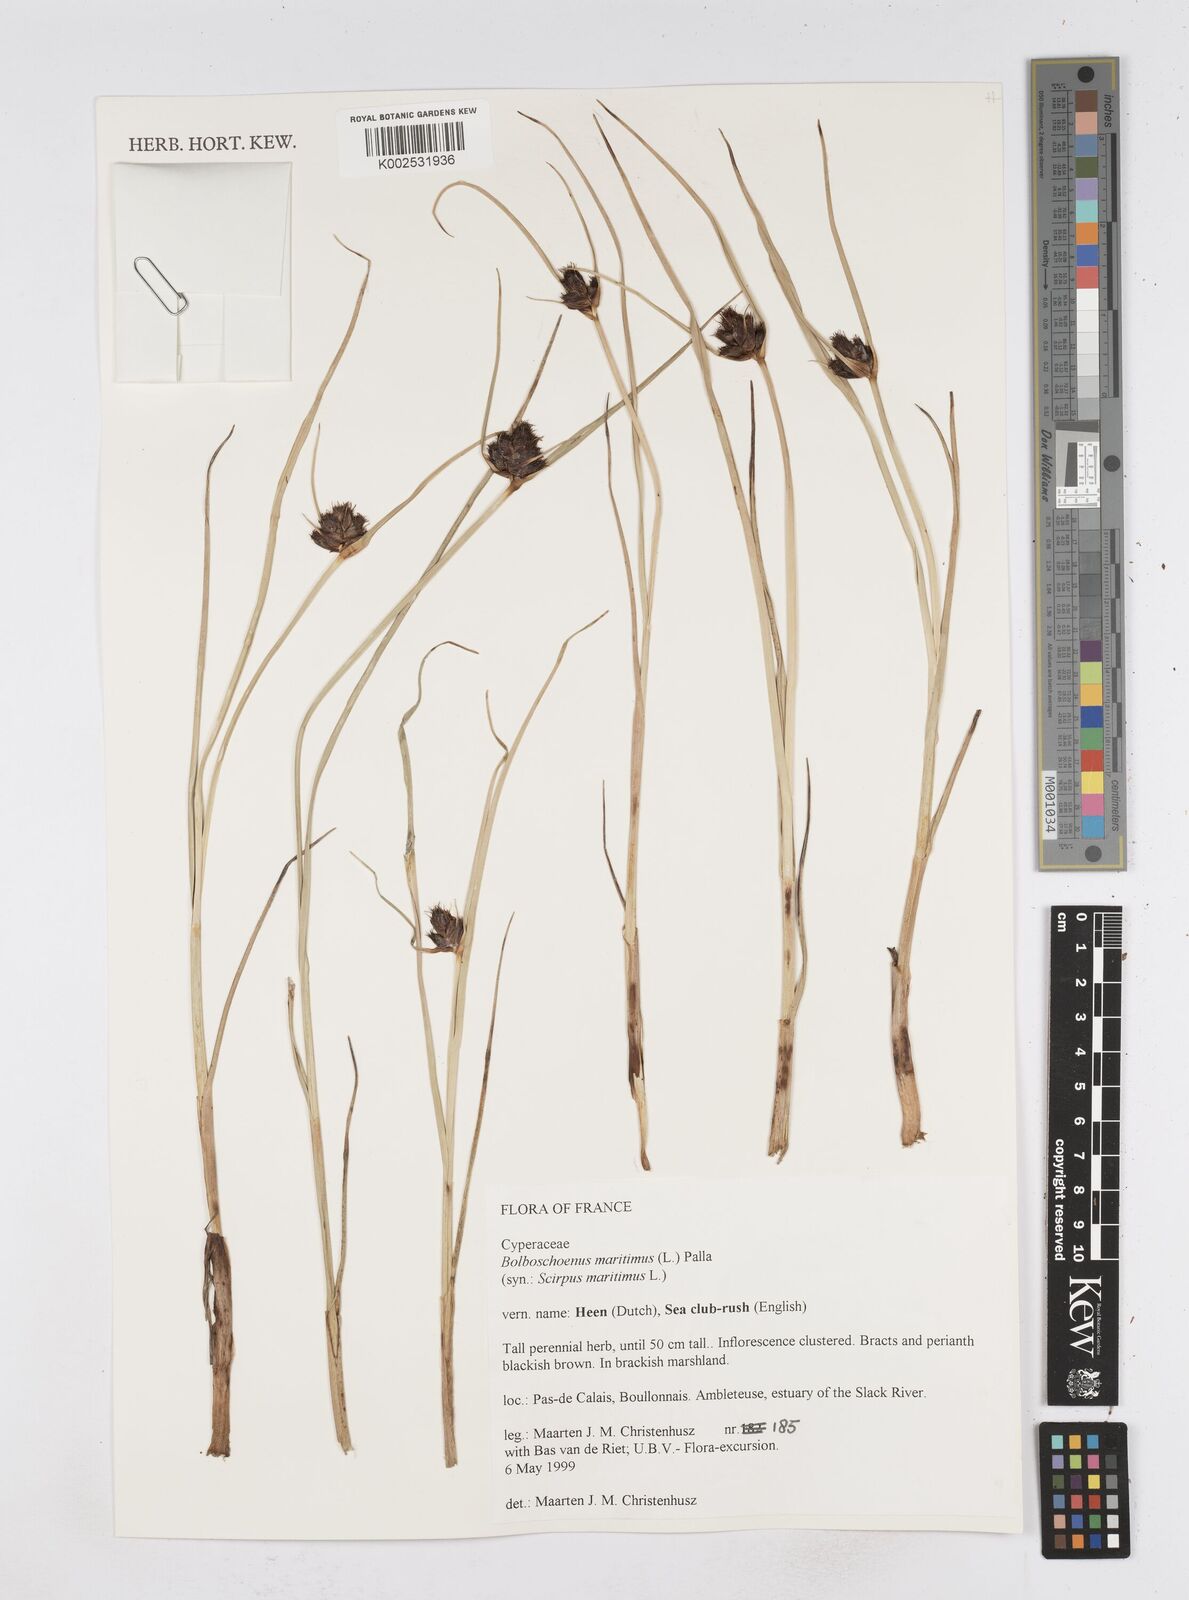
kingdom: Plantae
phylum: Tracheophyta
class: Liliopsida
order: Poales
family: Cyperaceae
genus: Bolboschoenus
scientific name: Bolboschoenus maritimus
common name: Sea club-rush
